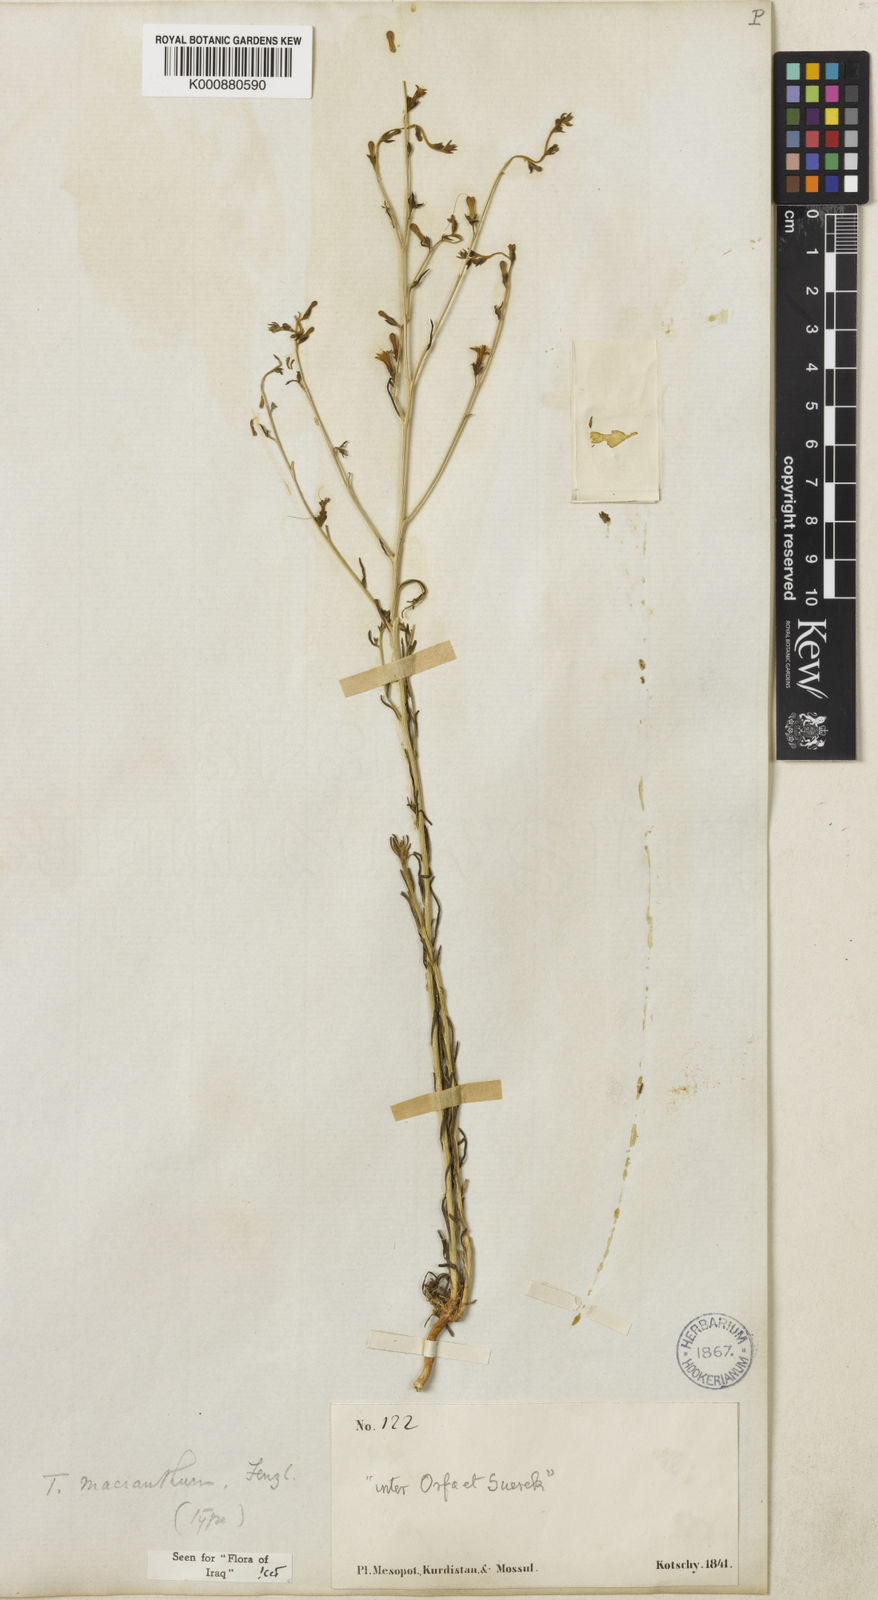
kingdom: Plantae
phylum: Tracheophyta
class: Magnoliopsida
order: Santalales
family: Thesiaceae
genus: Thesium
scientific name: Thesium
